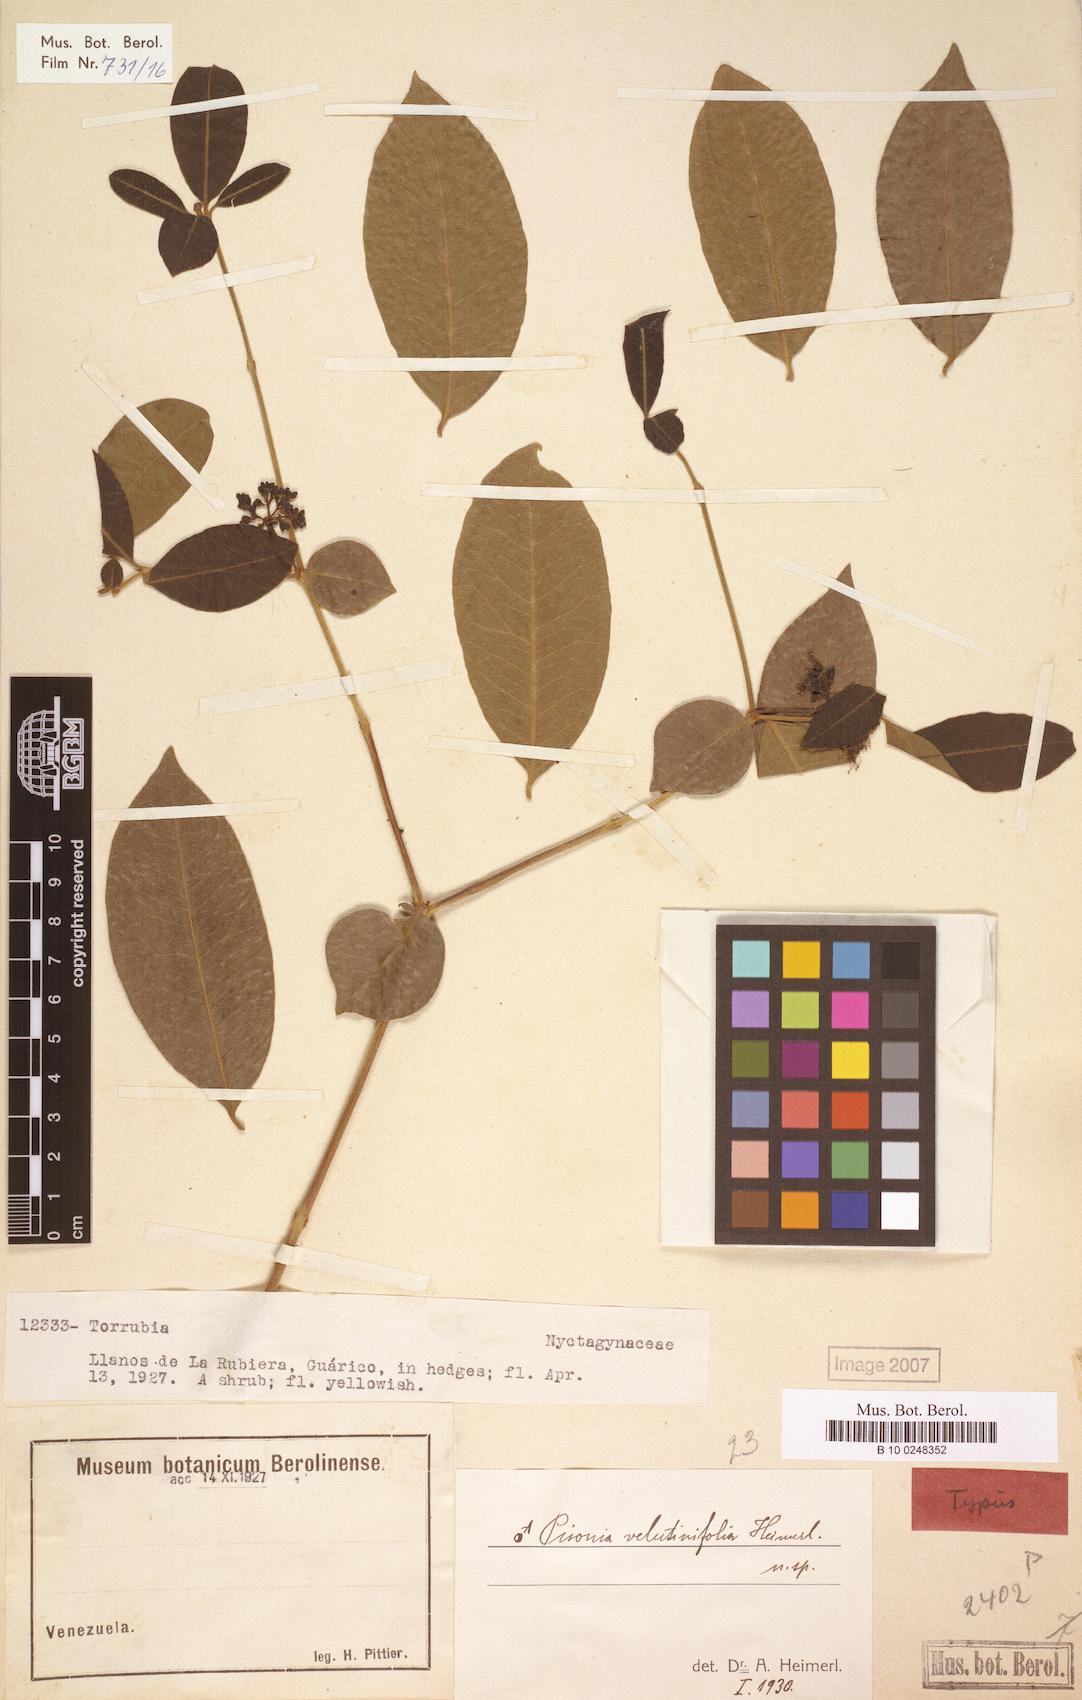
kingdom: Plantae
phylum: Tracheophyta
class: Magnoliopsida
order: Caryophyllales
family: Nyctaginaceae
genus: Pisonia
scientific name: Pisonia velutinifolia
